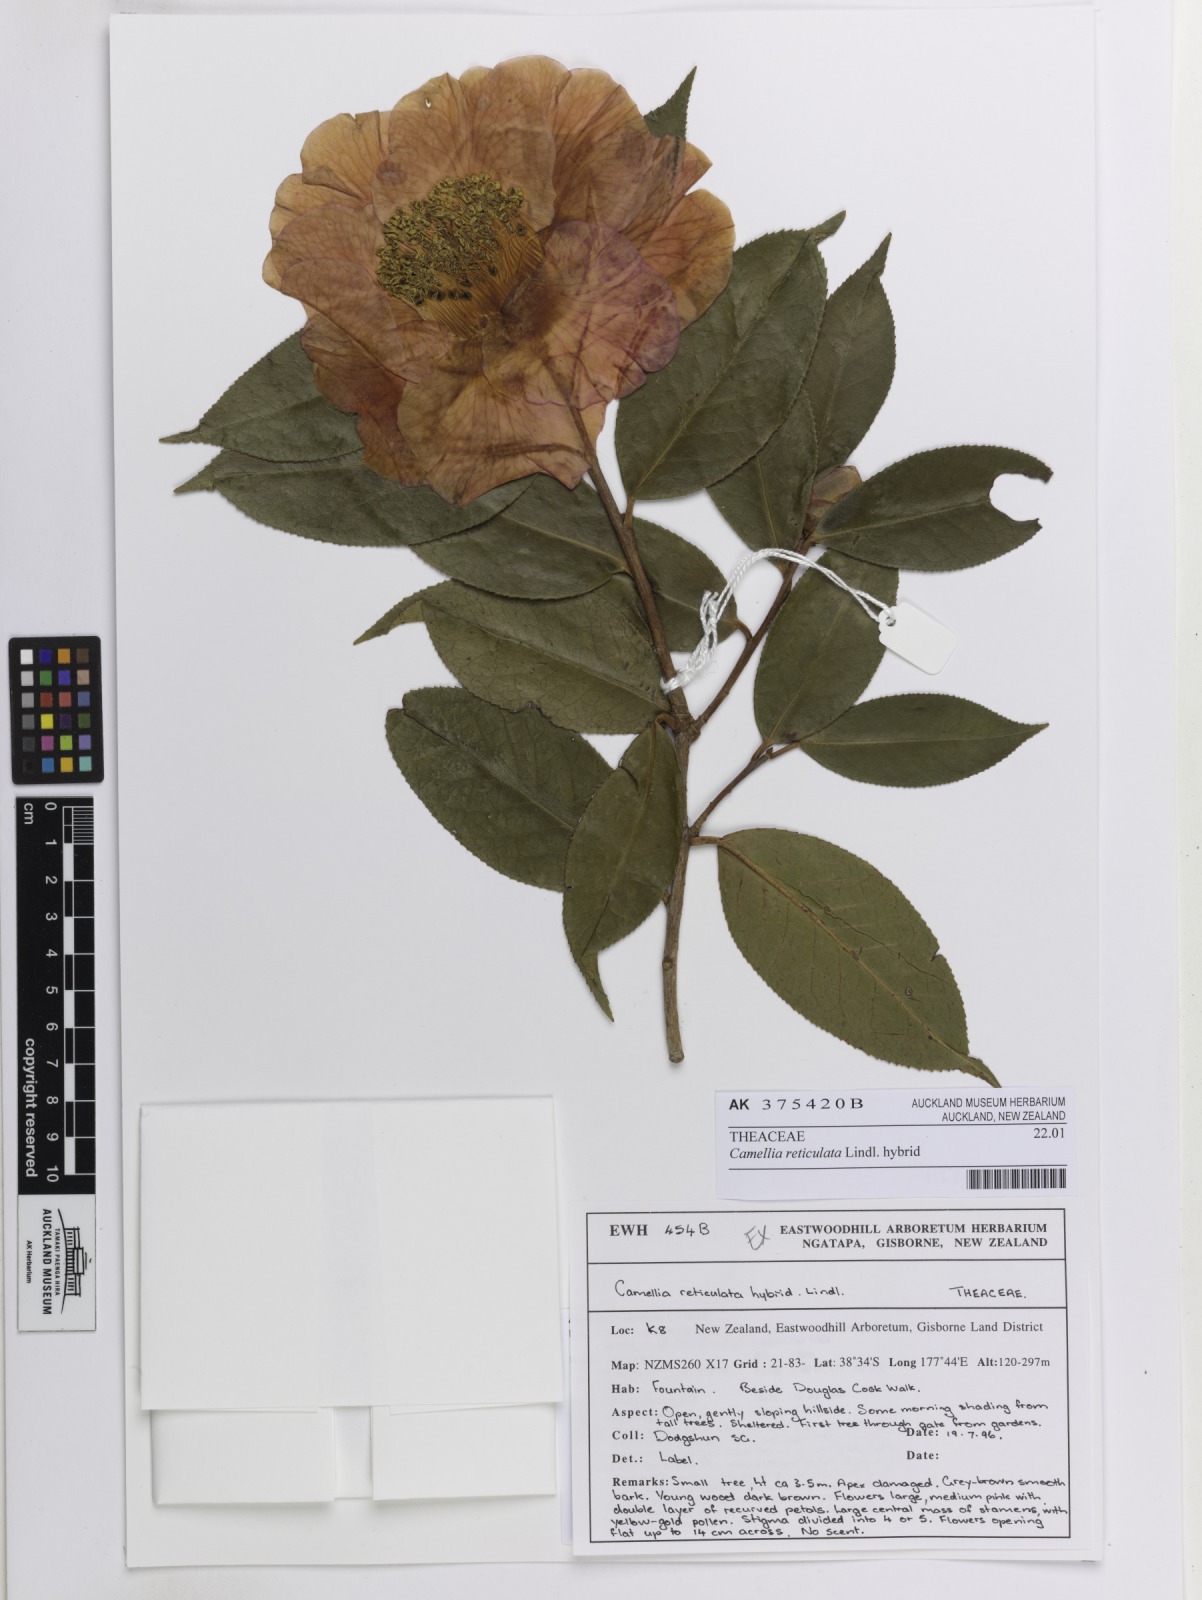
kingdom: Plantae
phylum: Tracheophyta
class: Magnoliopsida
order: Ericales
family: Theaceae
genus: Camellia
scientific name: Camellia reticulata
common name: To-tsubaki
